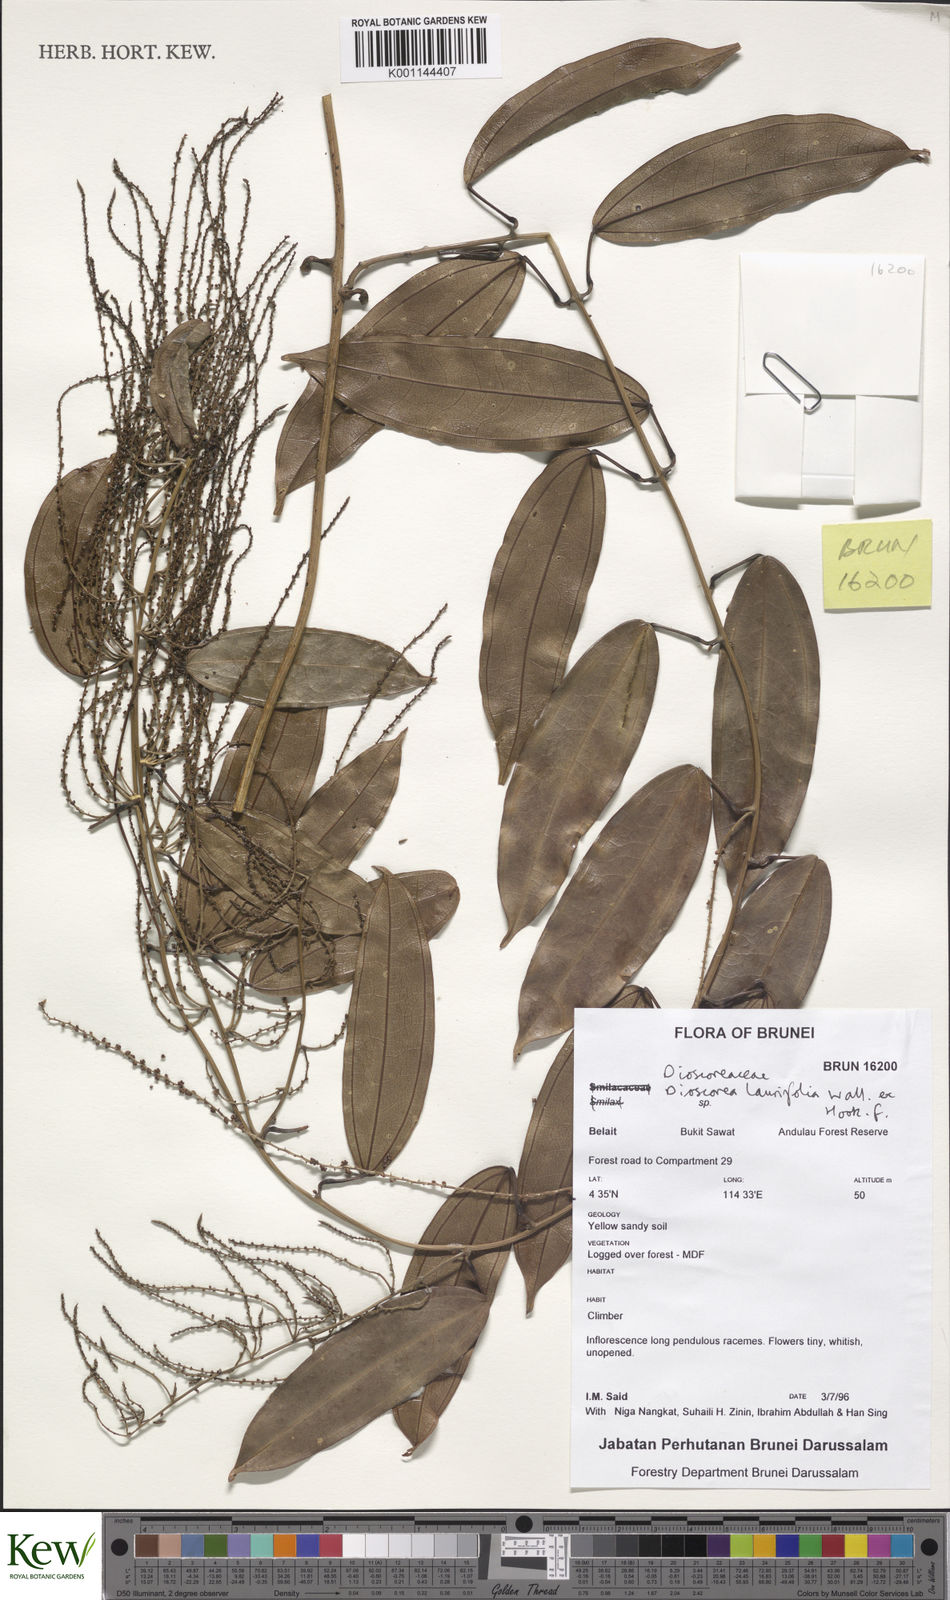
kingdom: Plantae
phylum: Tracheophyta
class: Liliopsida
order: Dioscoreales
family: Dioscoreaceae
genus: Dioscorea
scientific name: Dioscorea laurifolia
